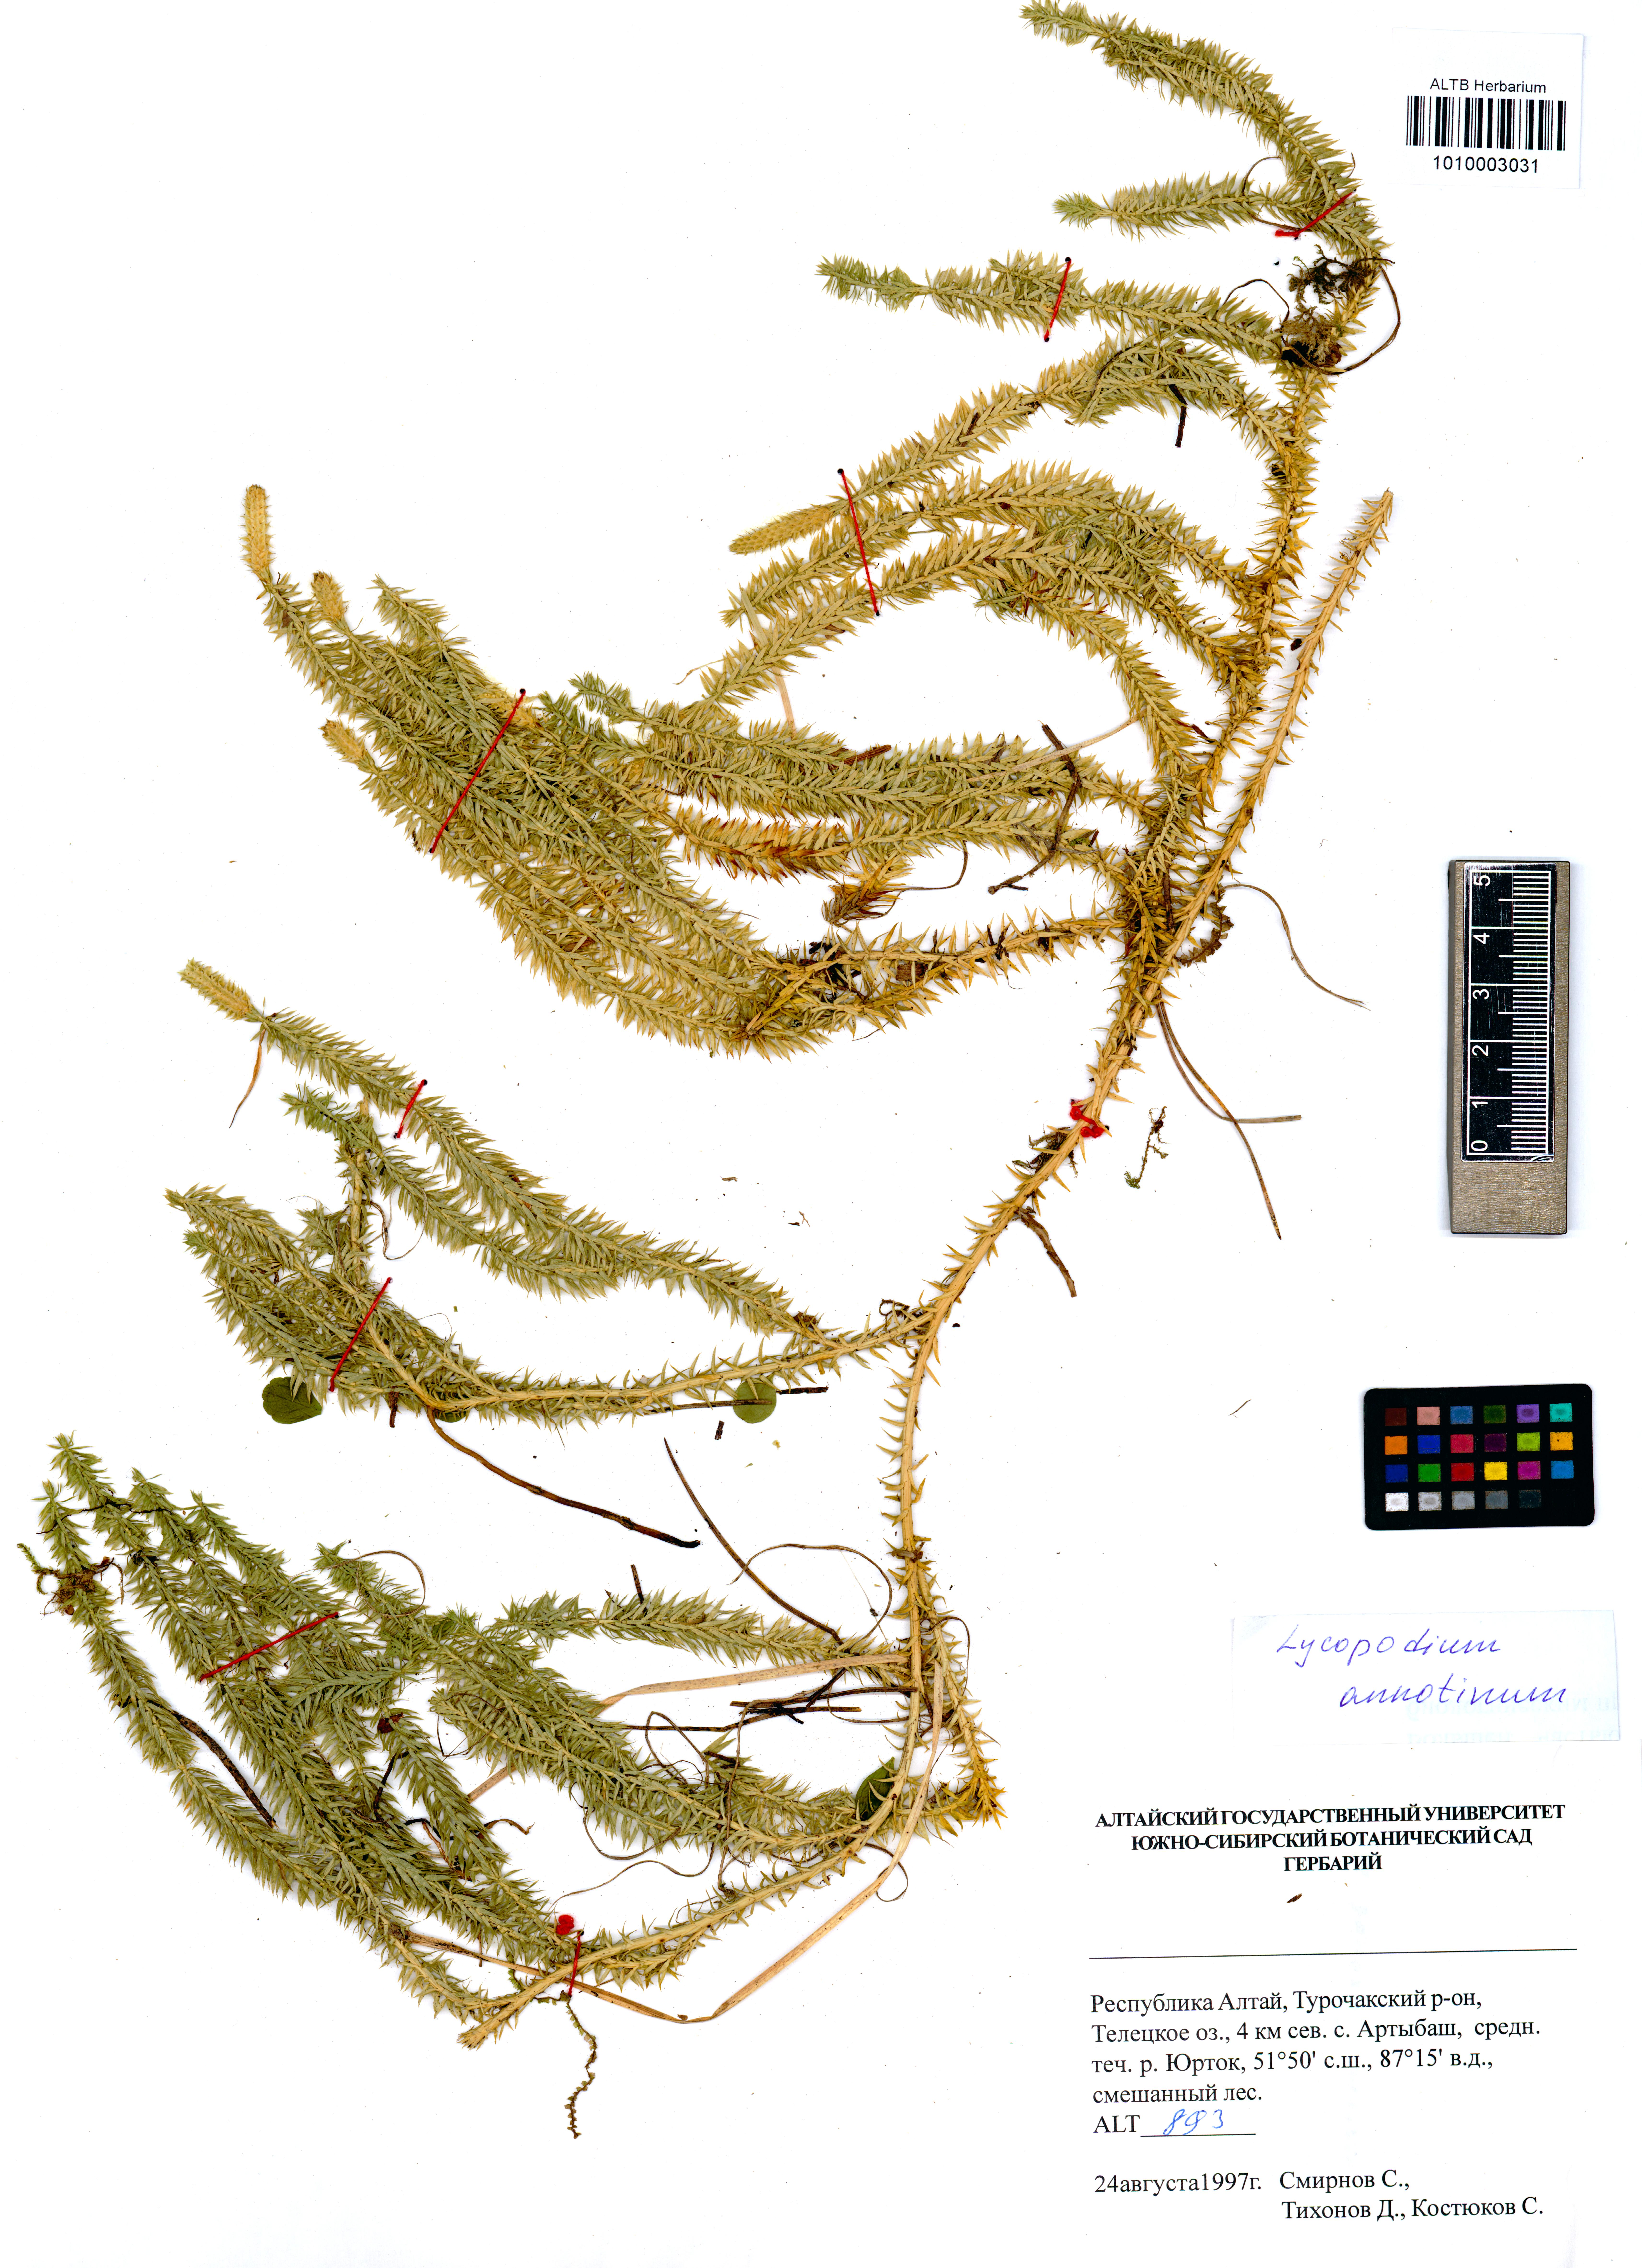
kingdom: Plantae
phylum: Tracheophyta
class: Lycopodiopsida
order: Lycopodiales
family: Lycopodiaceae
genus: Spinulum
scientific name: Spinulum annotinum
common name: Interrupted club-moss
